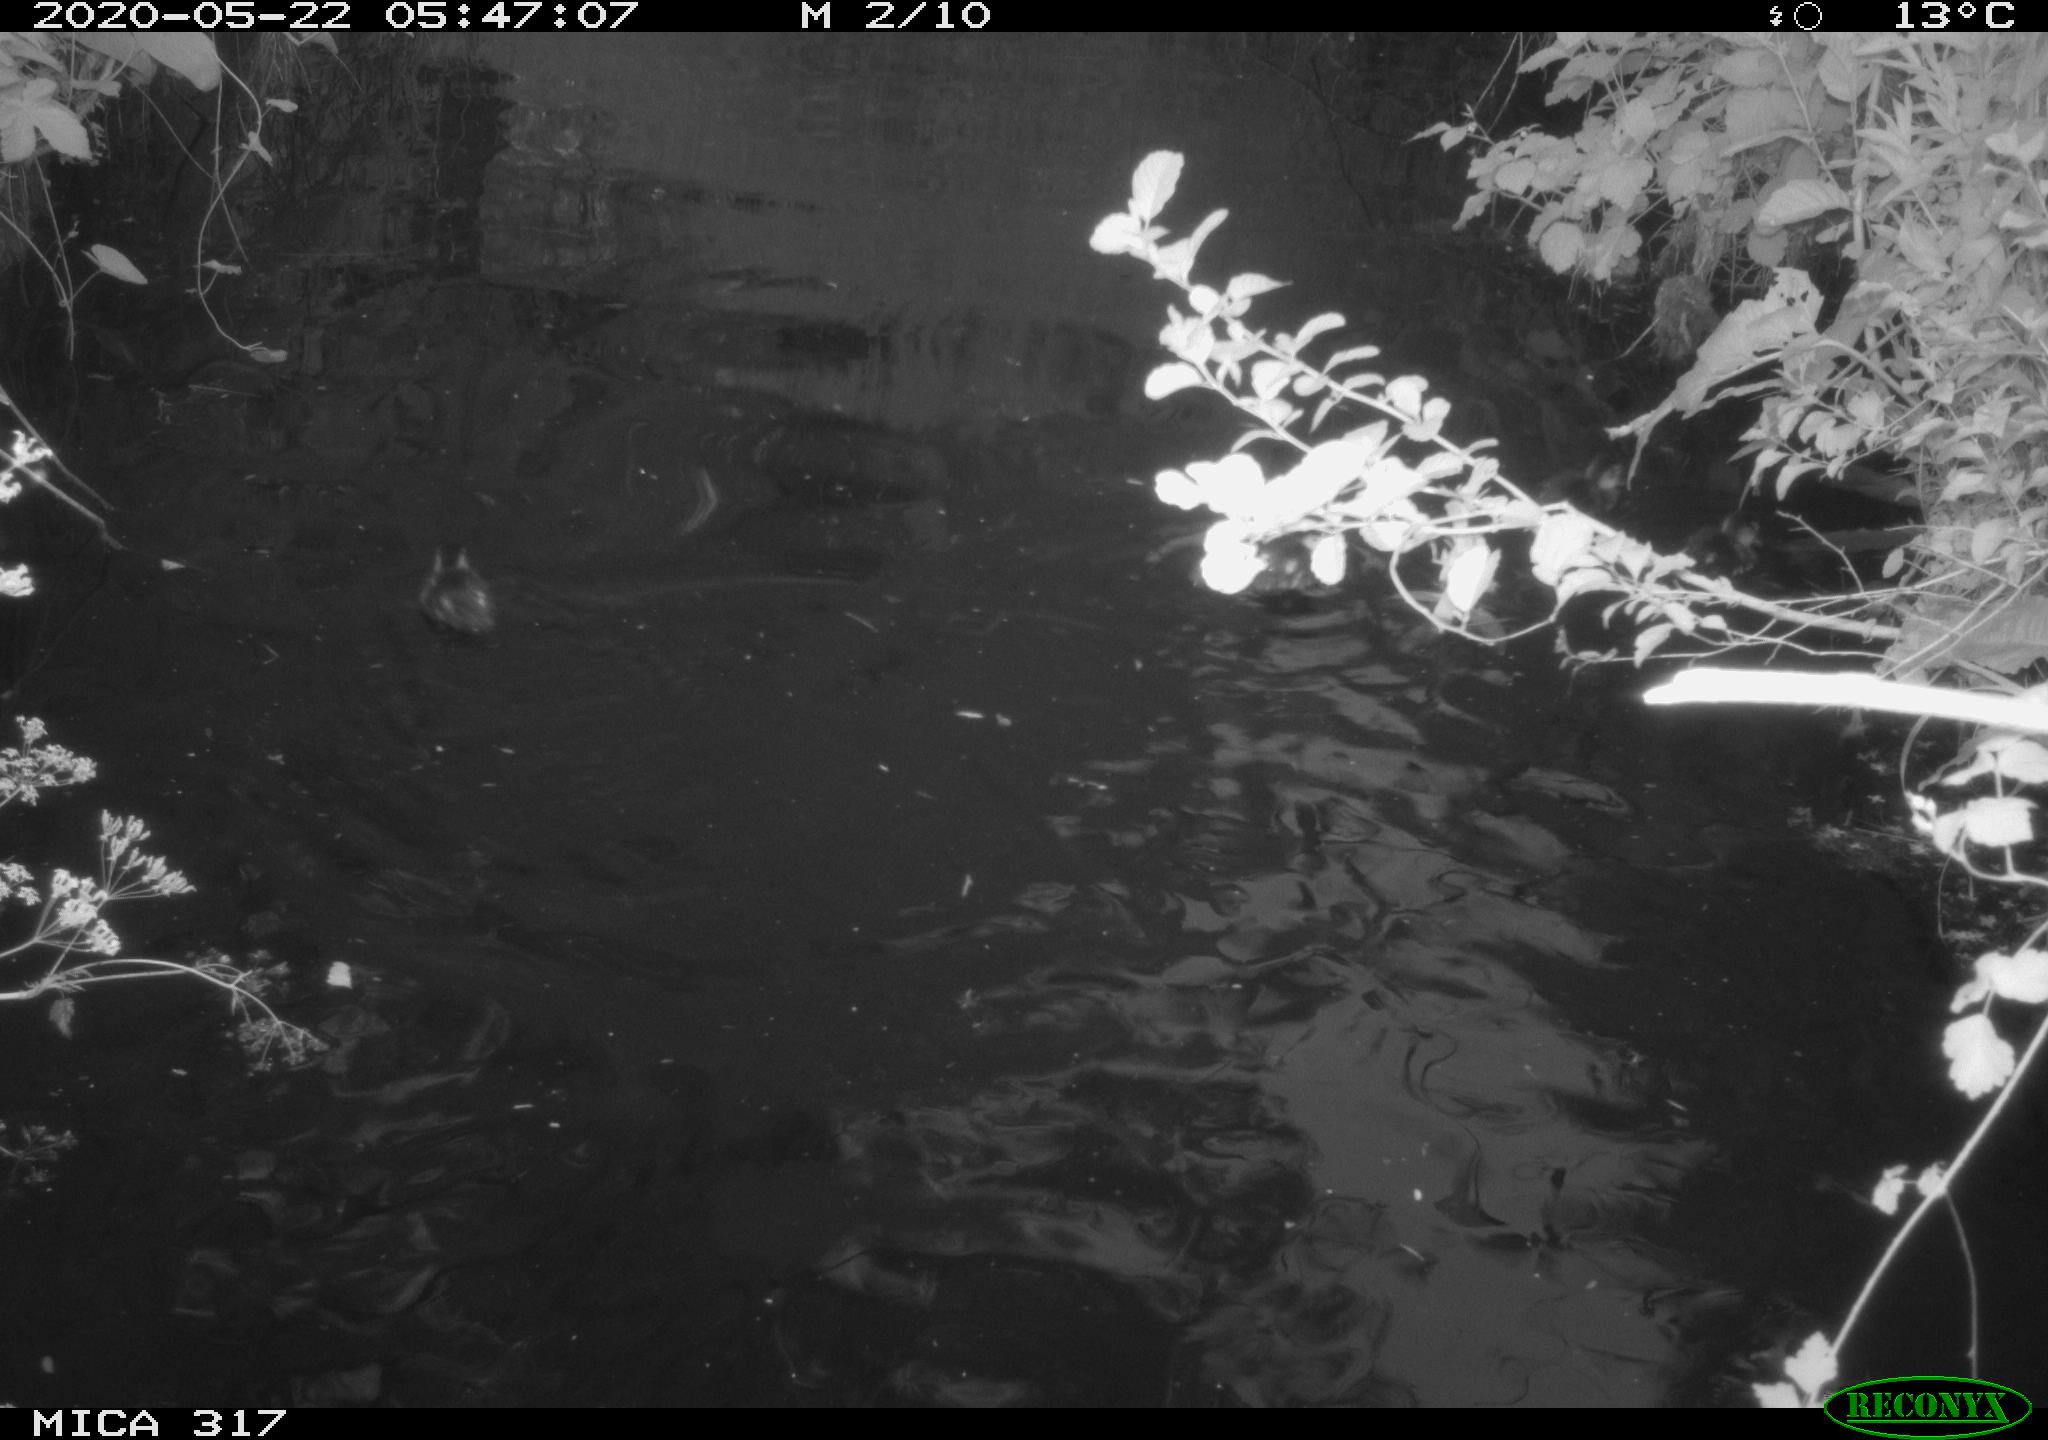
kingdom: Animalia
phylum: Chordata
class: Aves
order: Anseriformes
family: Anatidae
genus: Anas
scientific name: Anas platyrhynchos
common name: Mallard
